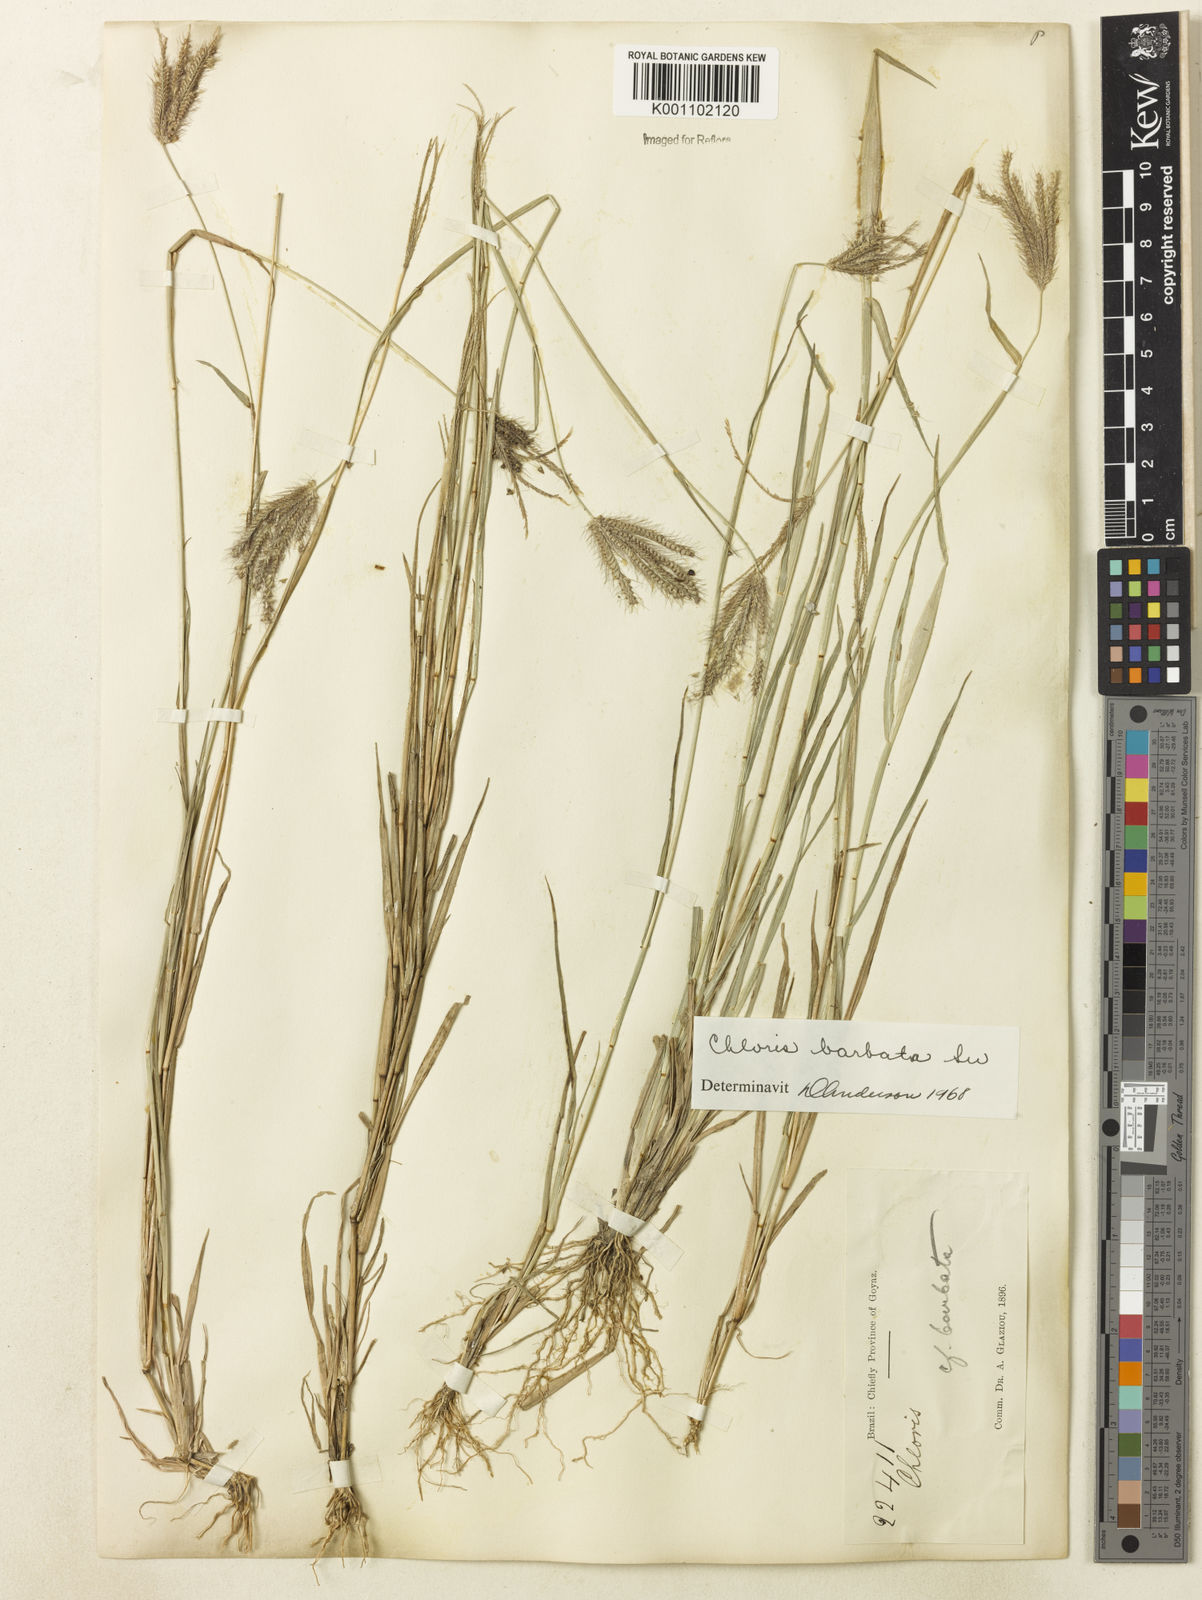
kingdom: Plantae
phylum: Tracheophyta
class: Liliopsida
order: Poales
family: Poaceae
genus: Chloris
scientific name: Chloris barbata
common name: Swollen fingergrass
